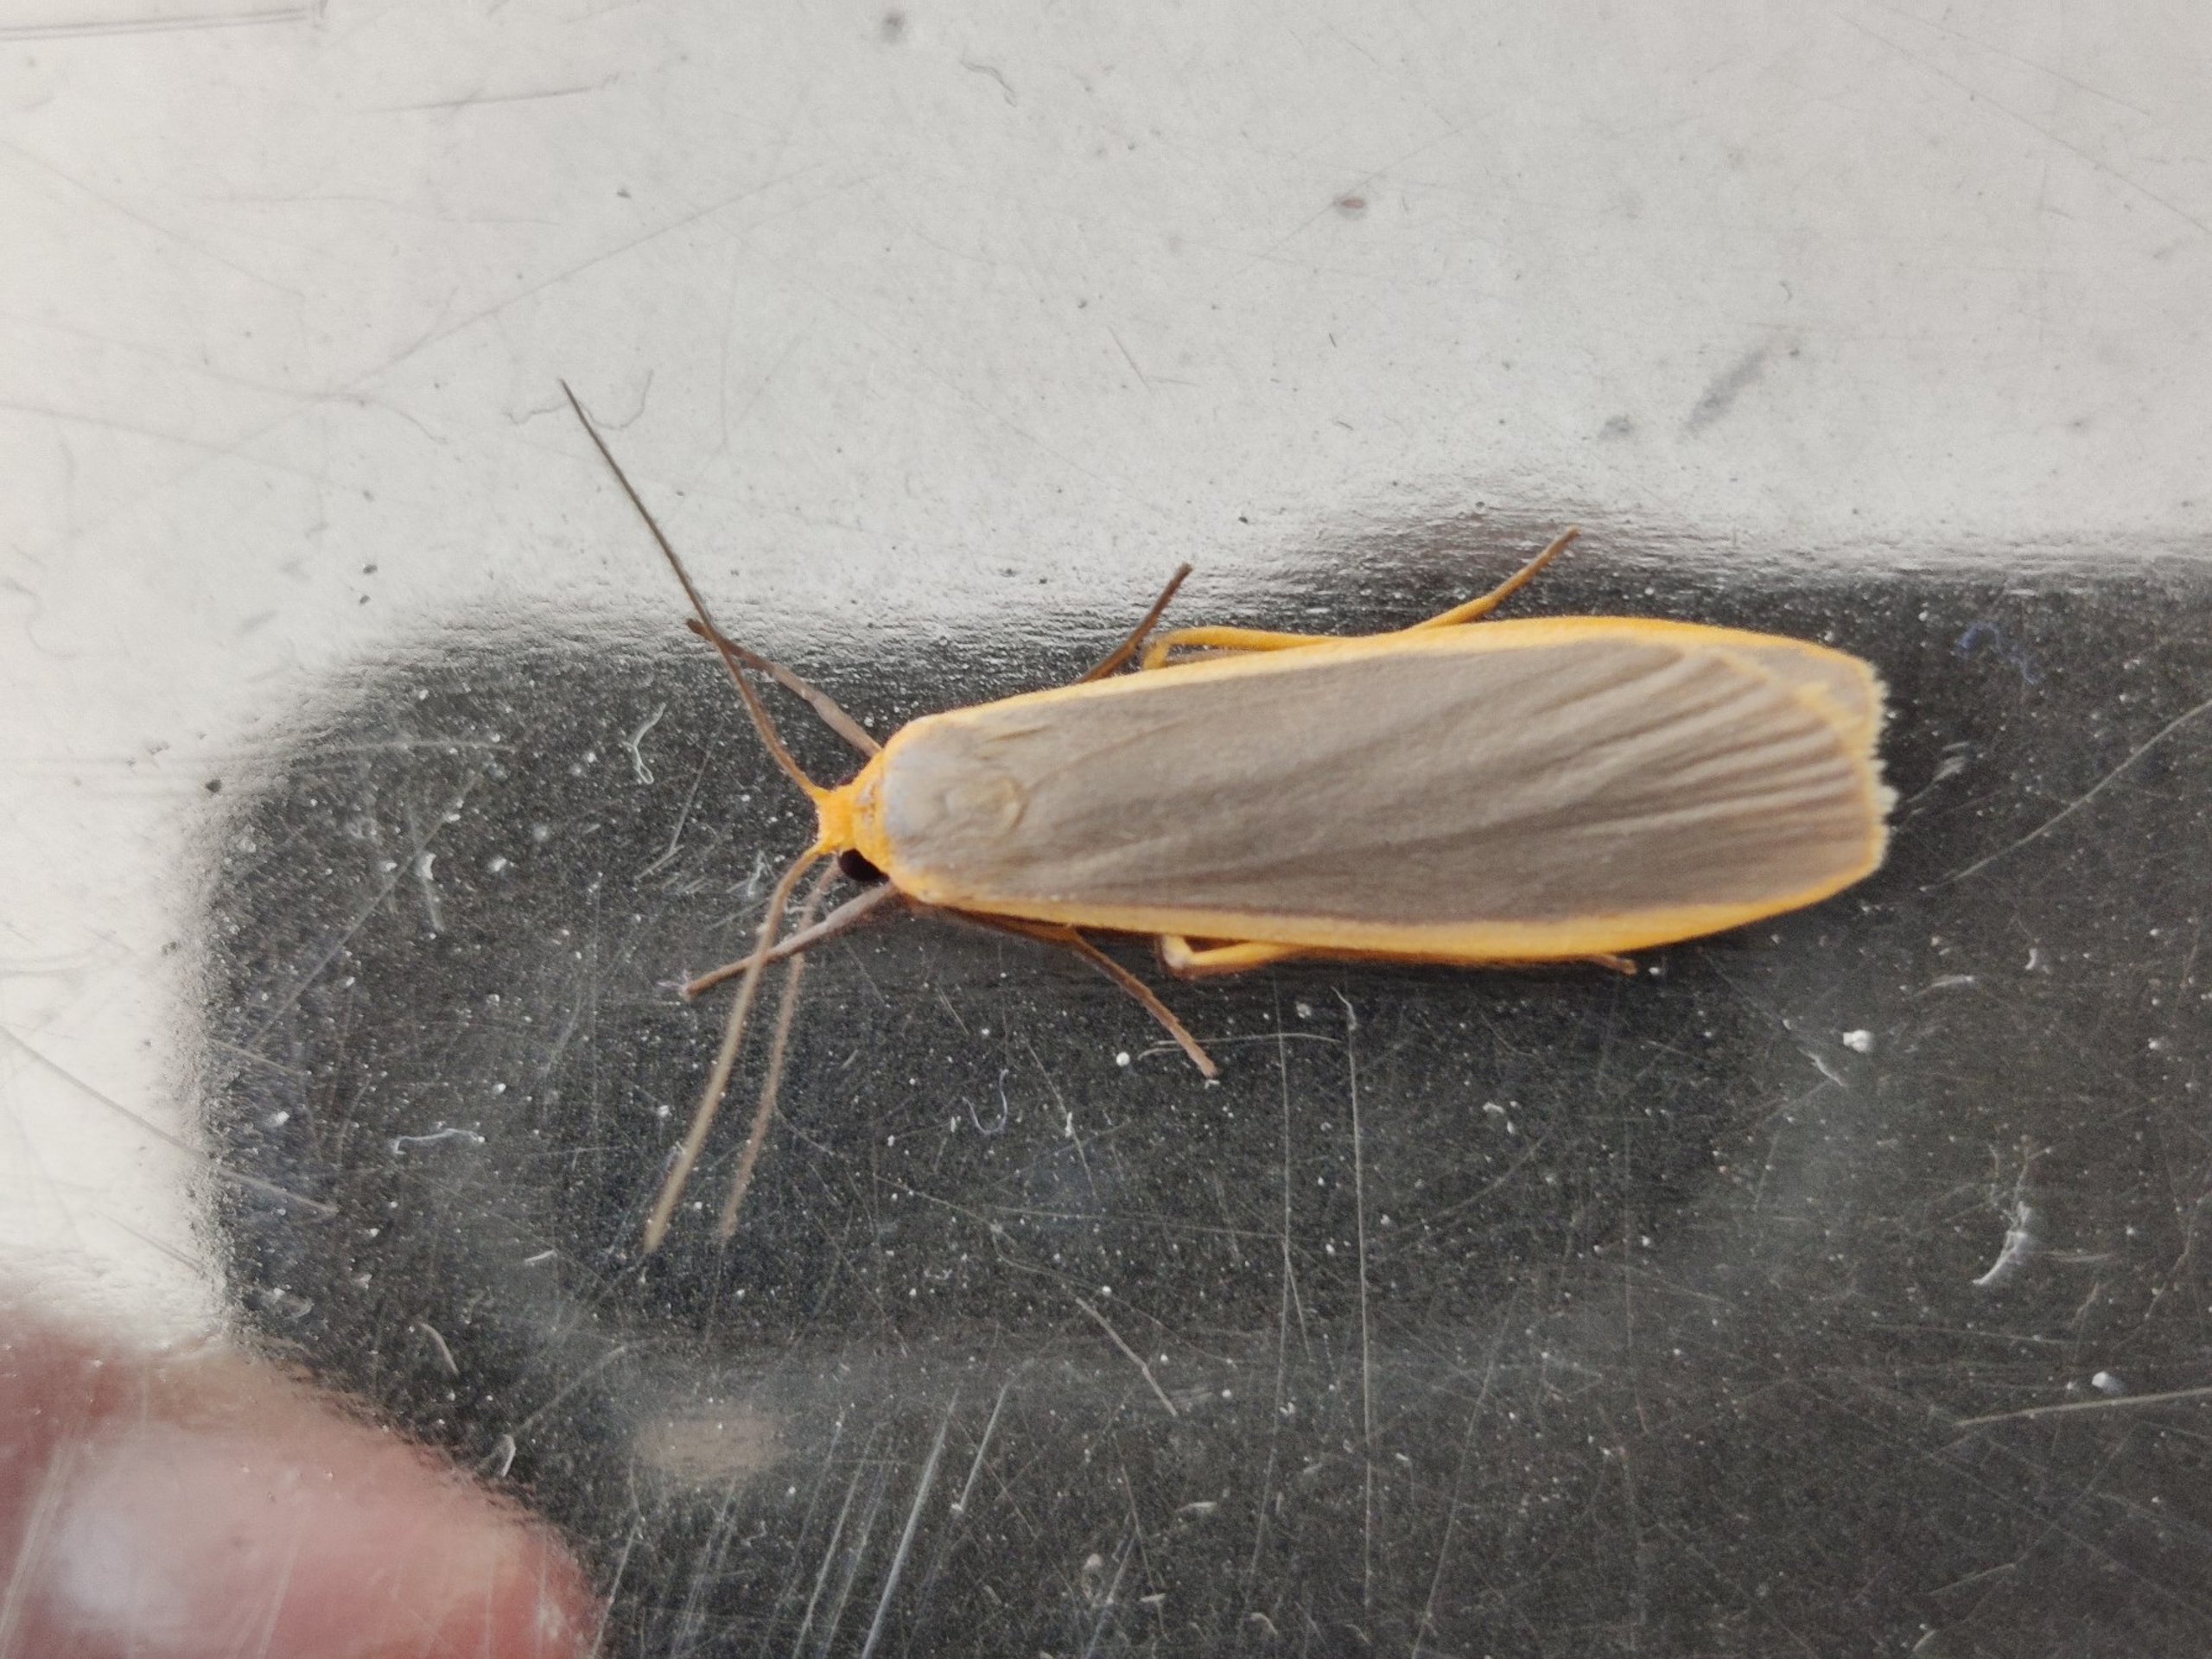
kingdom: Animalia
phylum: Arthropoda
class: Insecta
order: Lepidoptera
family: Erebidae
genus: Nyea
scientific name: Nyea lurideola
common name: Blygrå lavspinder
